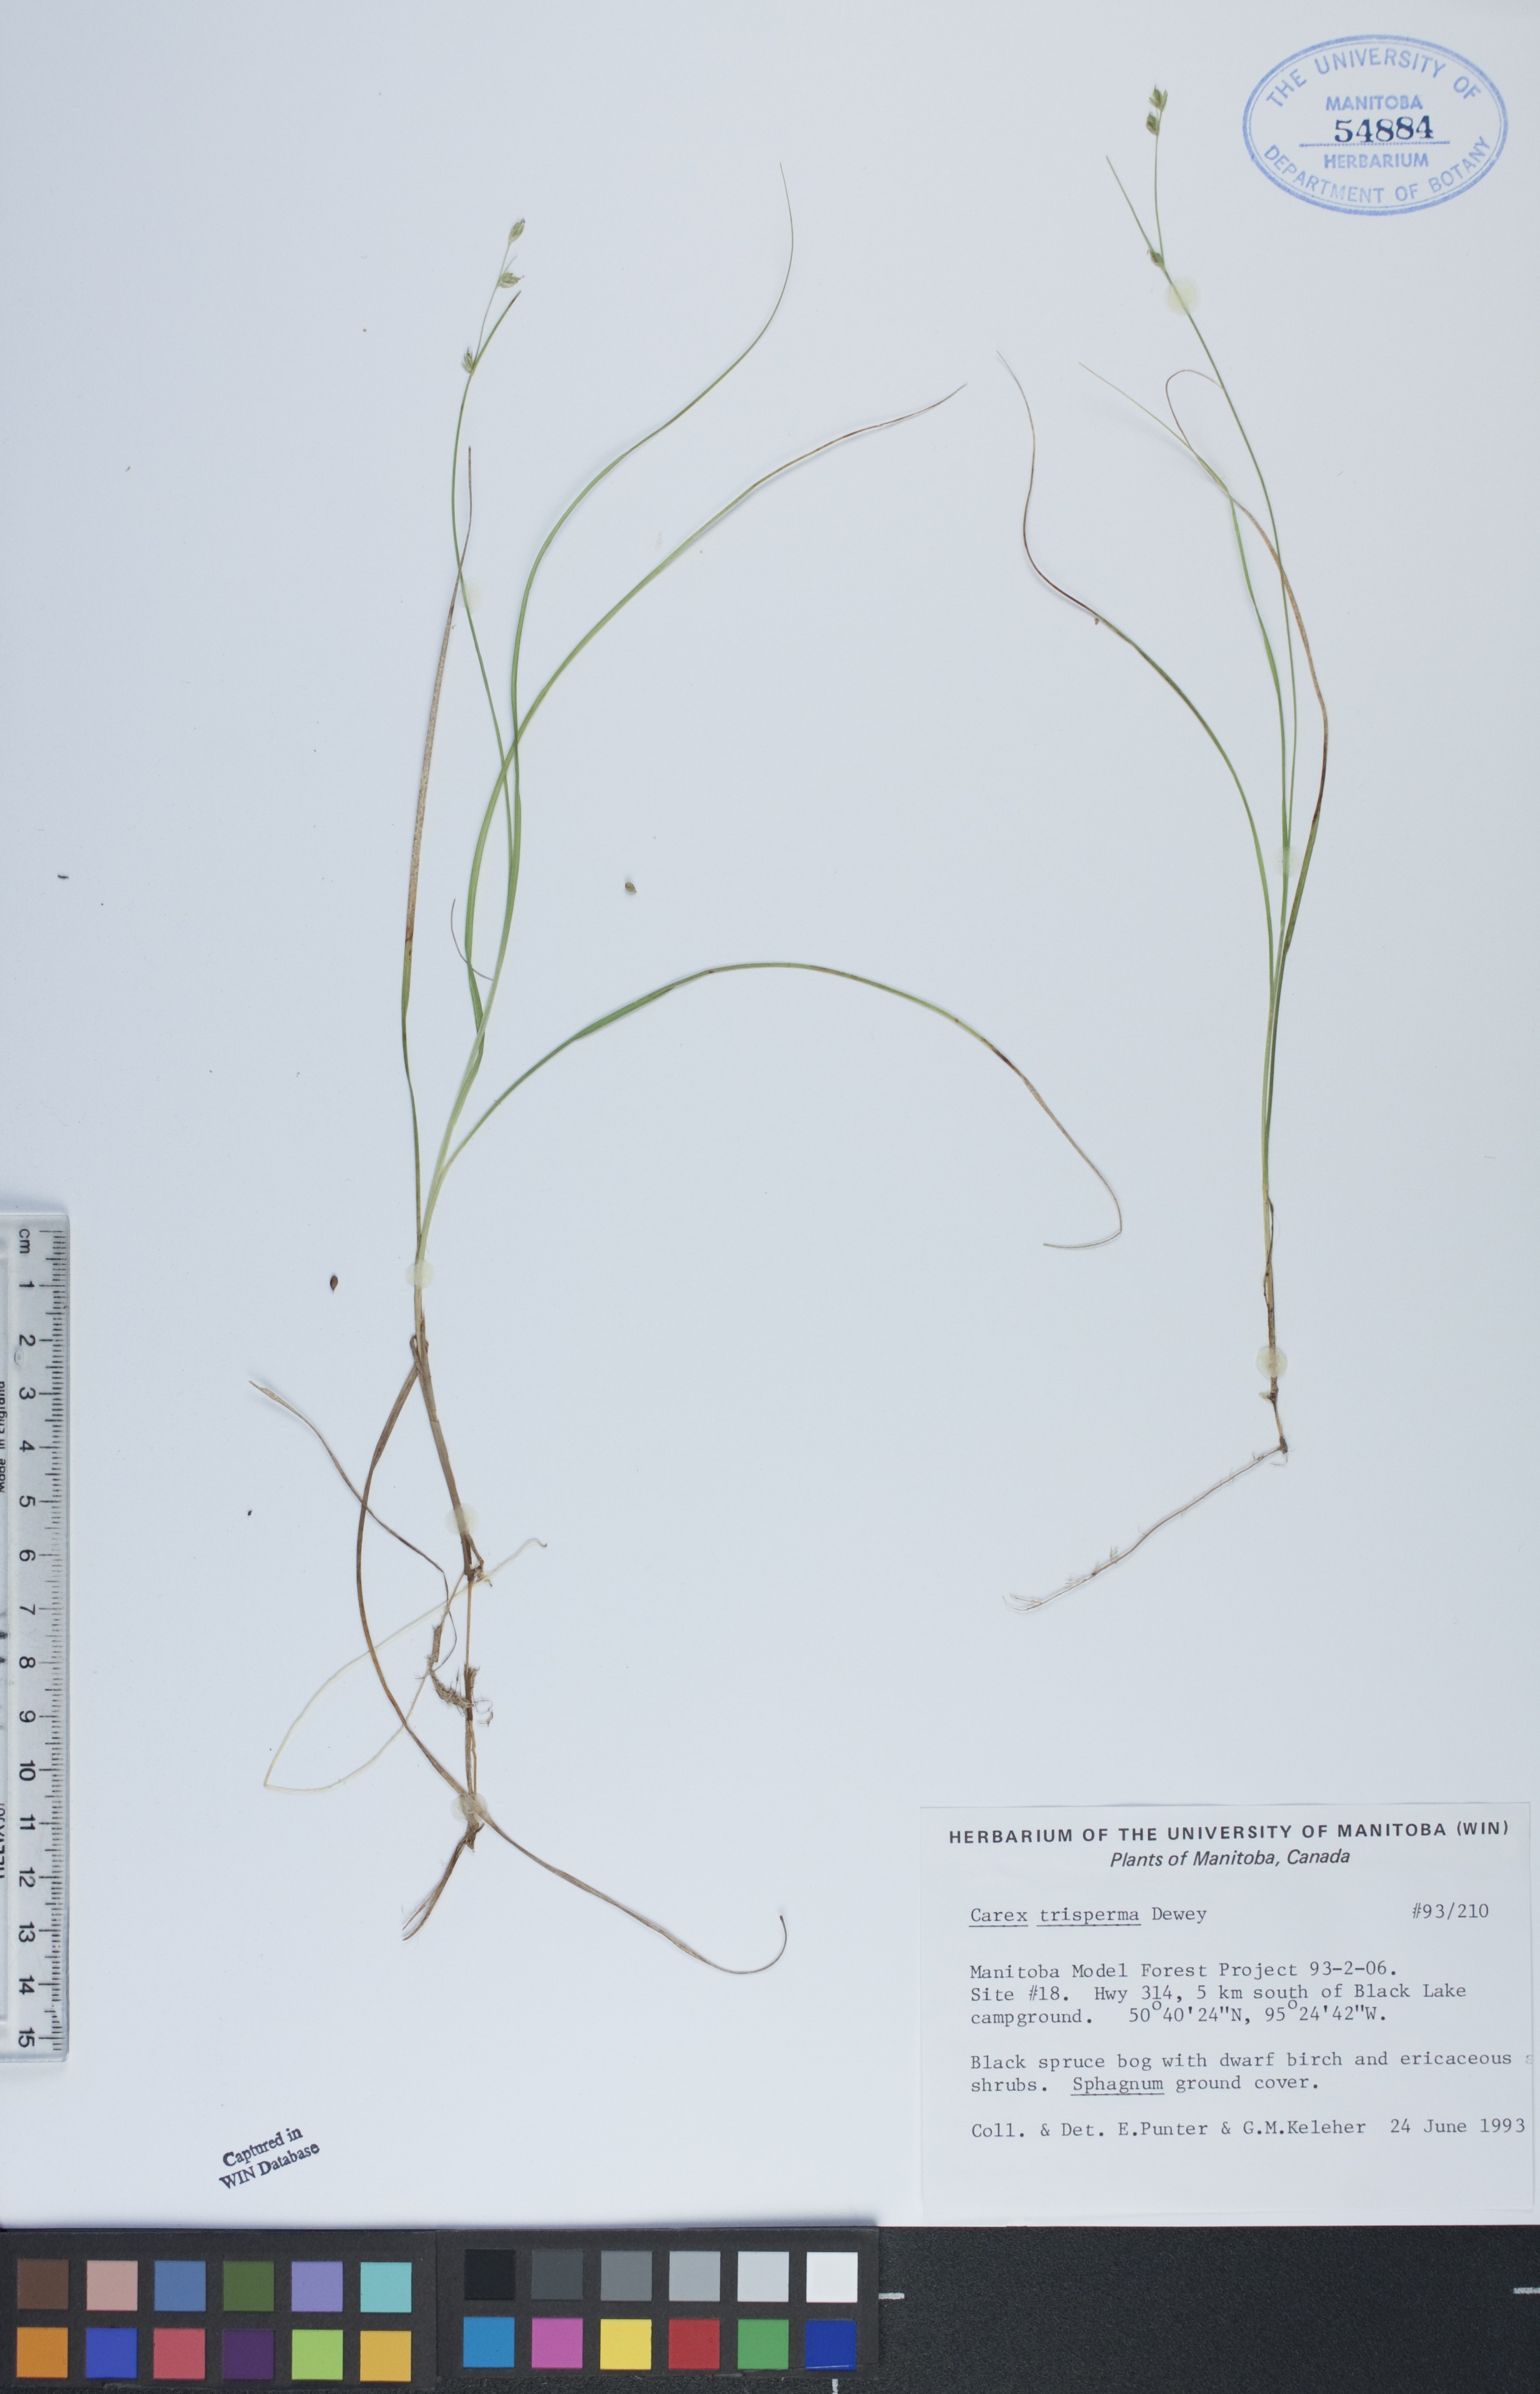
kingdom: Plantae
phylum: Tracheophyta
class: Liliopsida
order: Poales
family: Cyperaceae
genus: Carex
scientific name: Carex trisperma
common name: Three-seeded sedge
